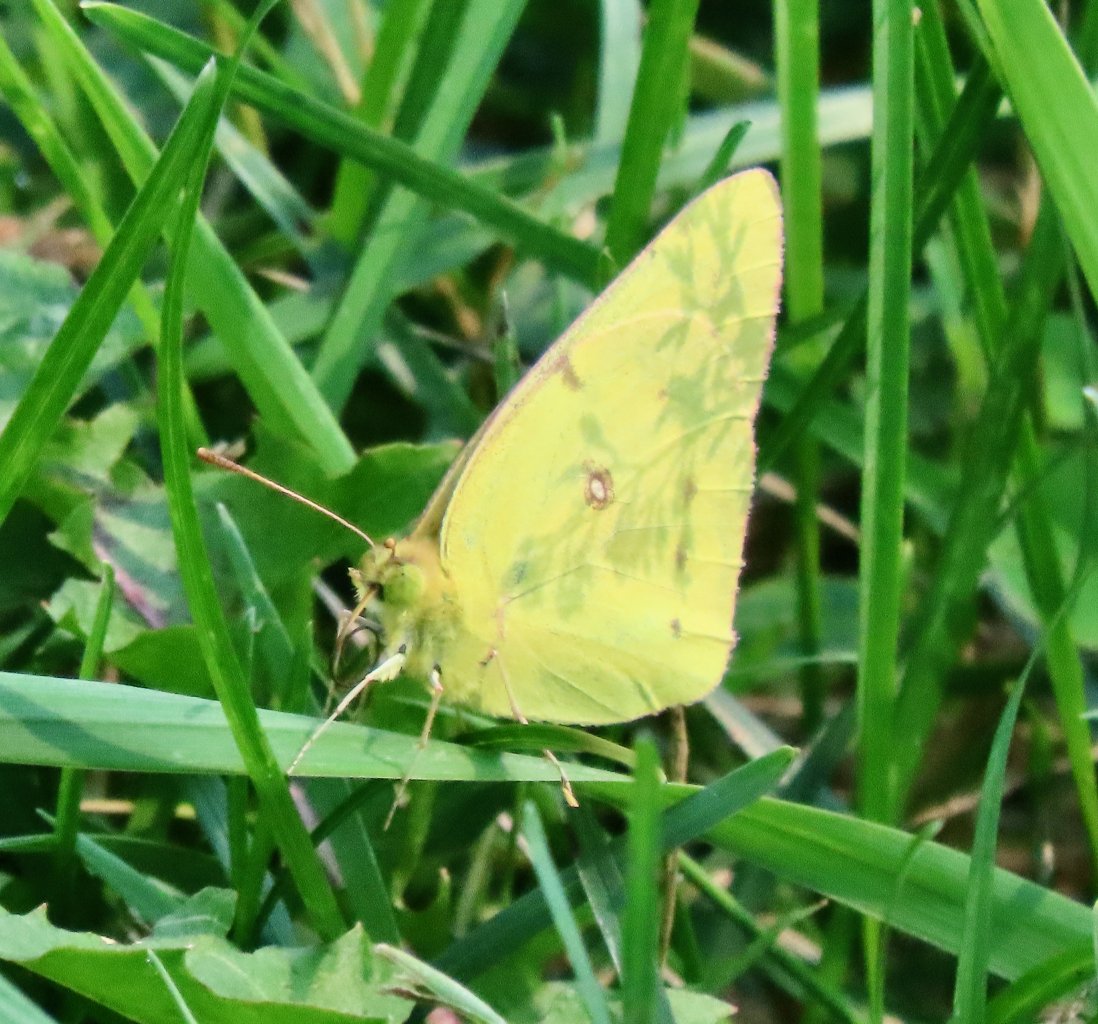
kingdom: Animalia
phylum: Arthropoda
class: Insecta
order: Lepidoptera
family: Pieridae
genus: Colias
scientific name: Colias philodice
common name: Clouded Sulphur
